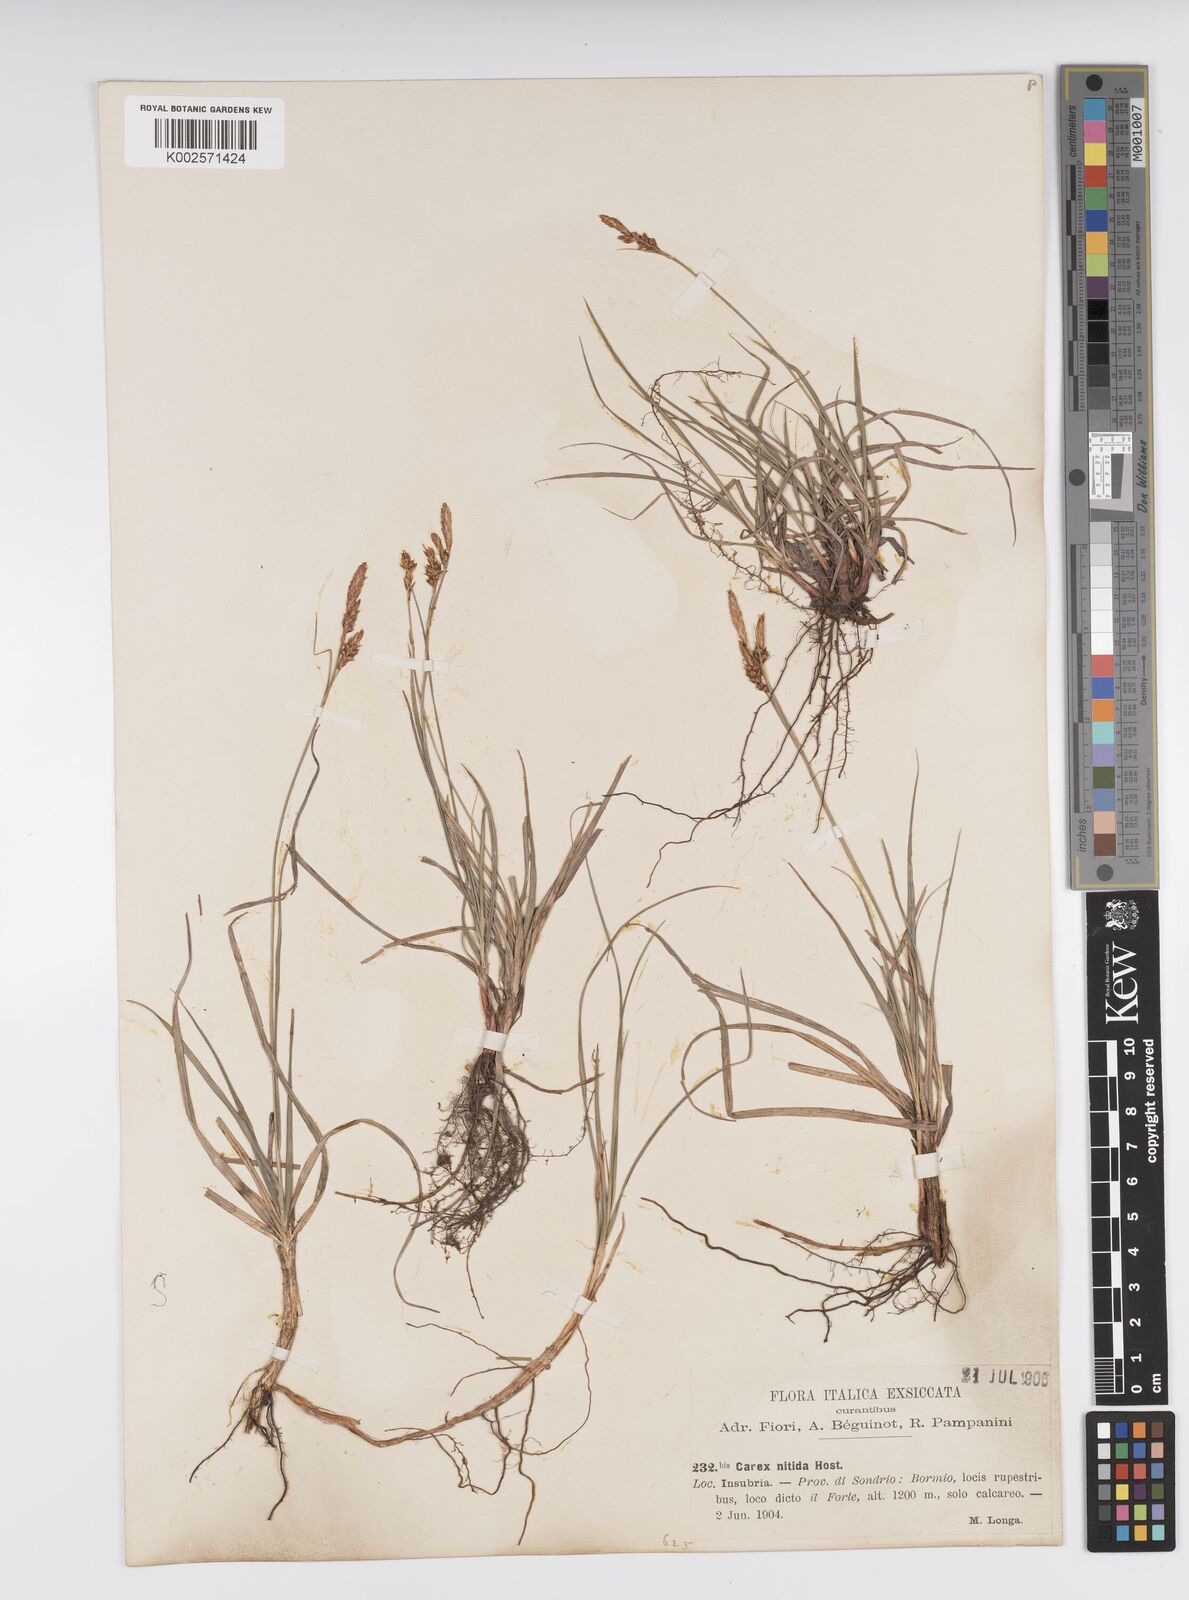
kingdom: Plantae
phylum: Tracheophyta
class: Liliopsida
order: Poales
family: Cyperaceae
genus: Carex
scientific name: Carex liparocarpos
